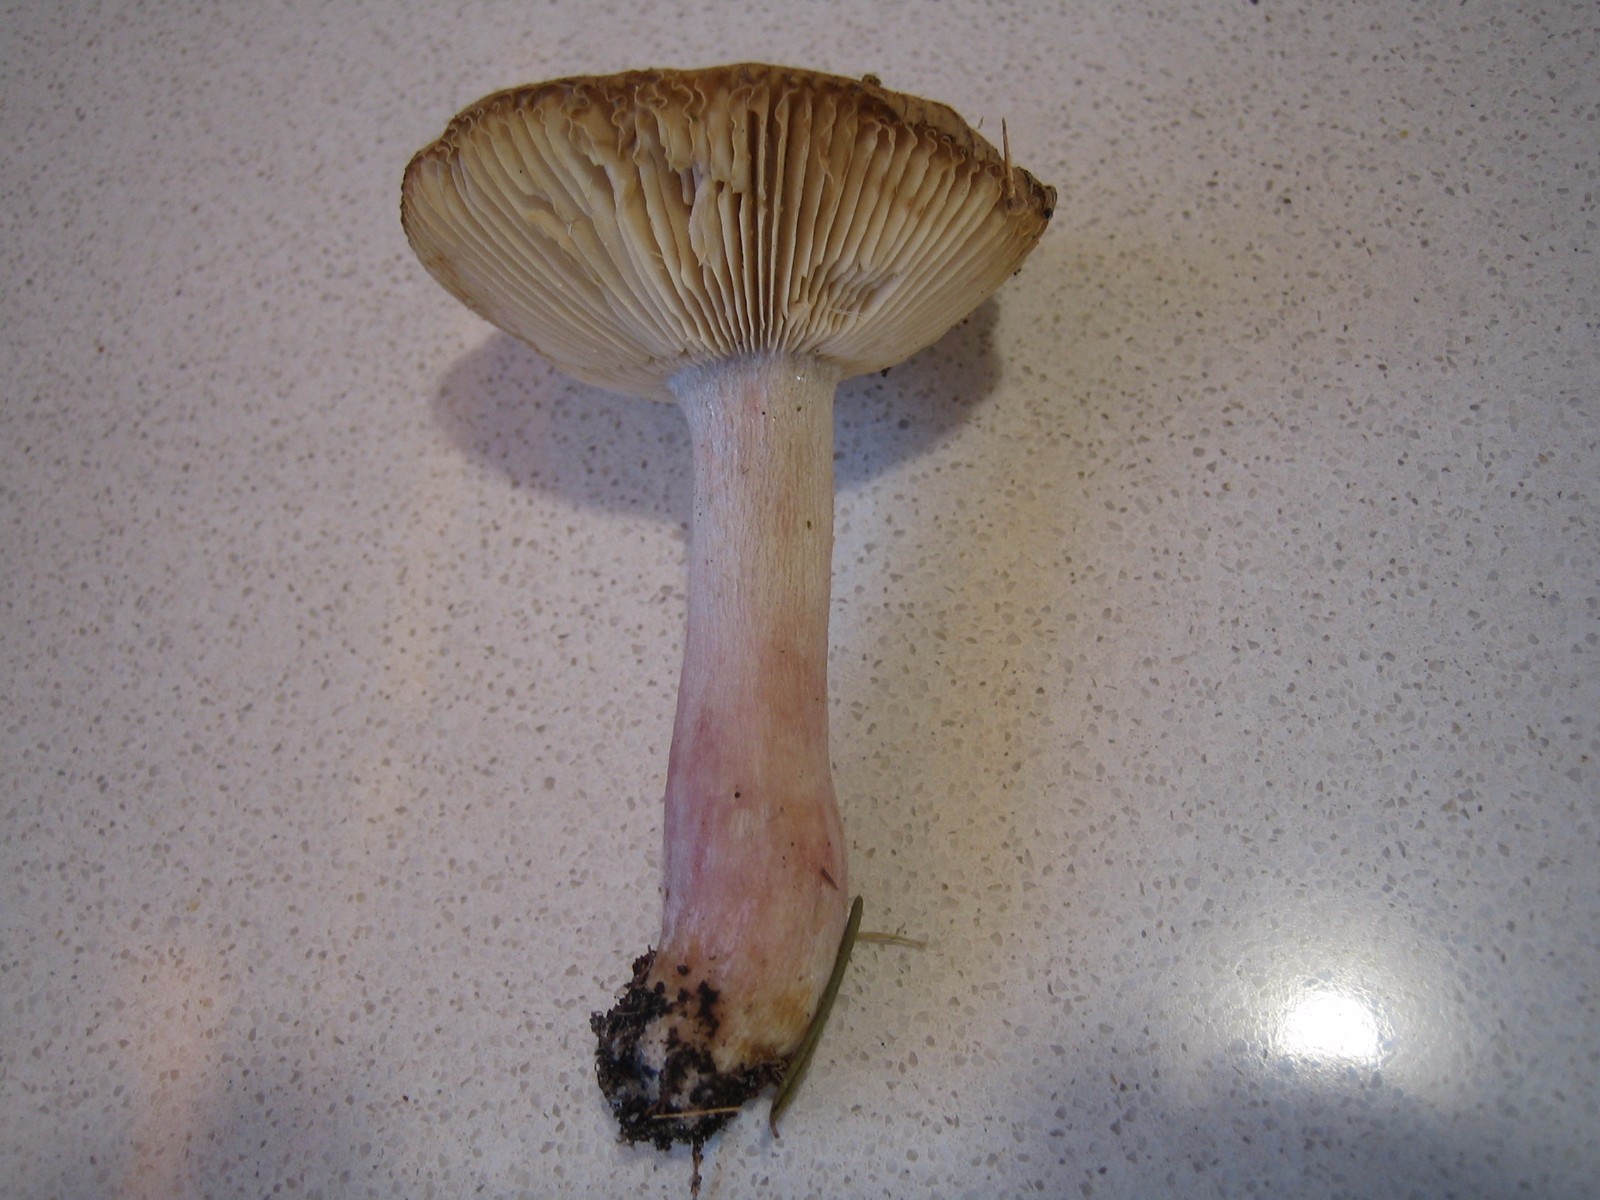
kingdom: Fungi
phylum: Basidiomycota
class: Agaricomycetes
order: Russulales
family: Russulaceae
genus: Russula
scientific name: Russula queletii
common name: Quélets skørhat
